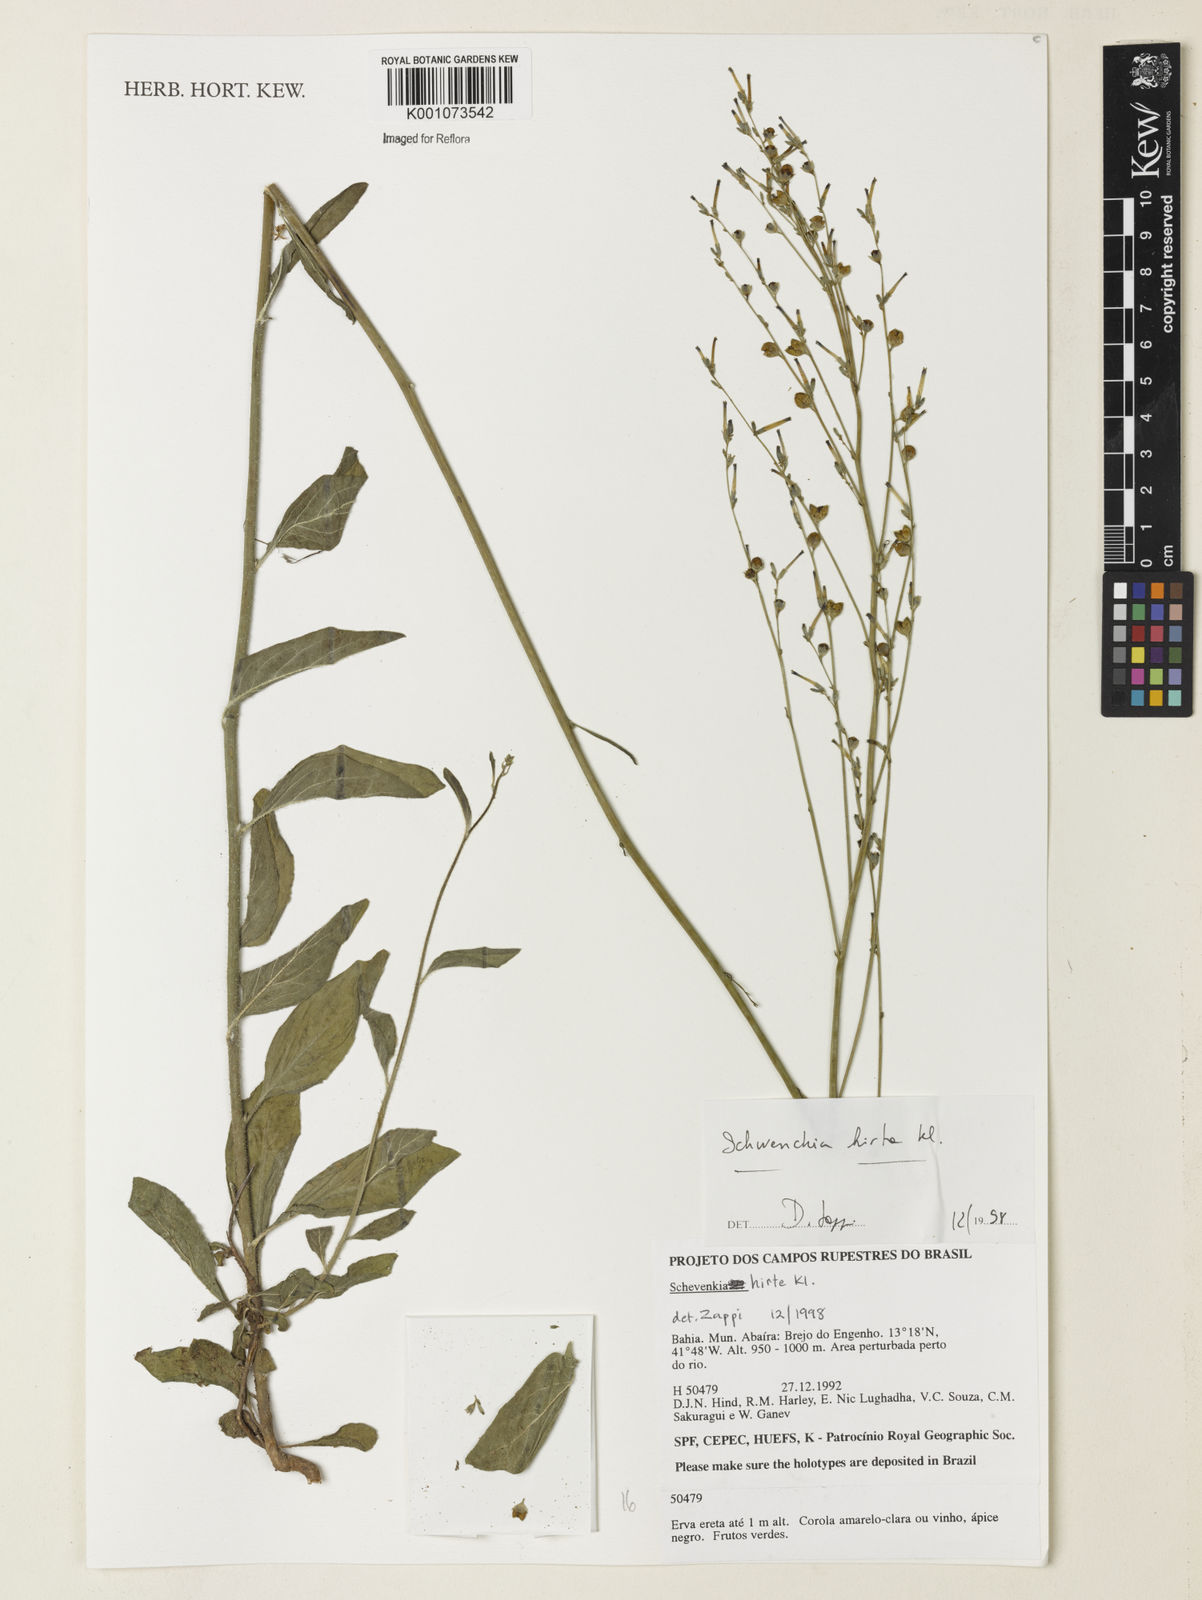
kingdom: Plantae
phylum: Tracheophyta
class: Magnoliopsida
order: Solanales
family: Solanaceae
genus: Schwenckia
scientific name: Schwenckia americana
